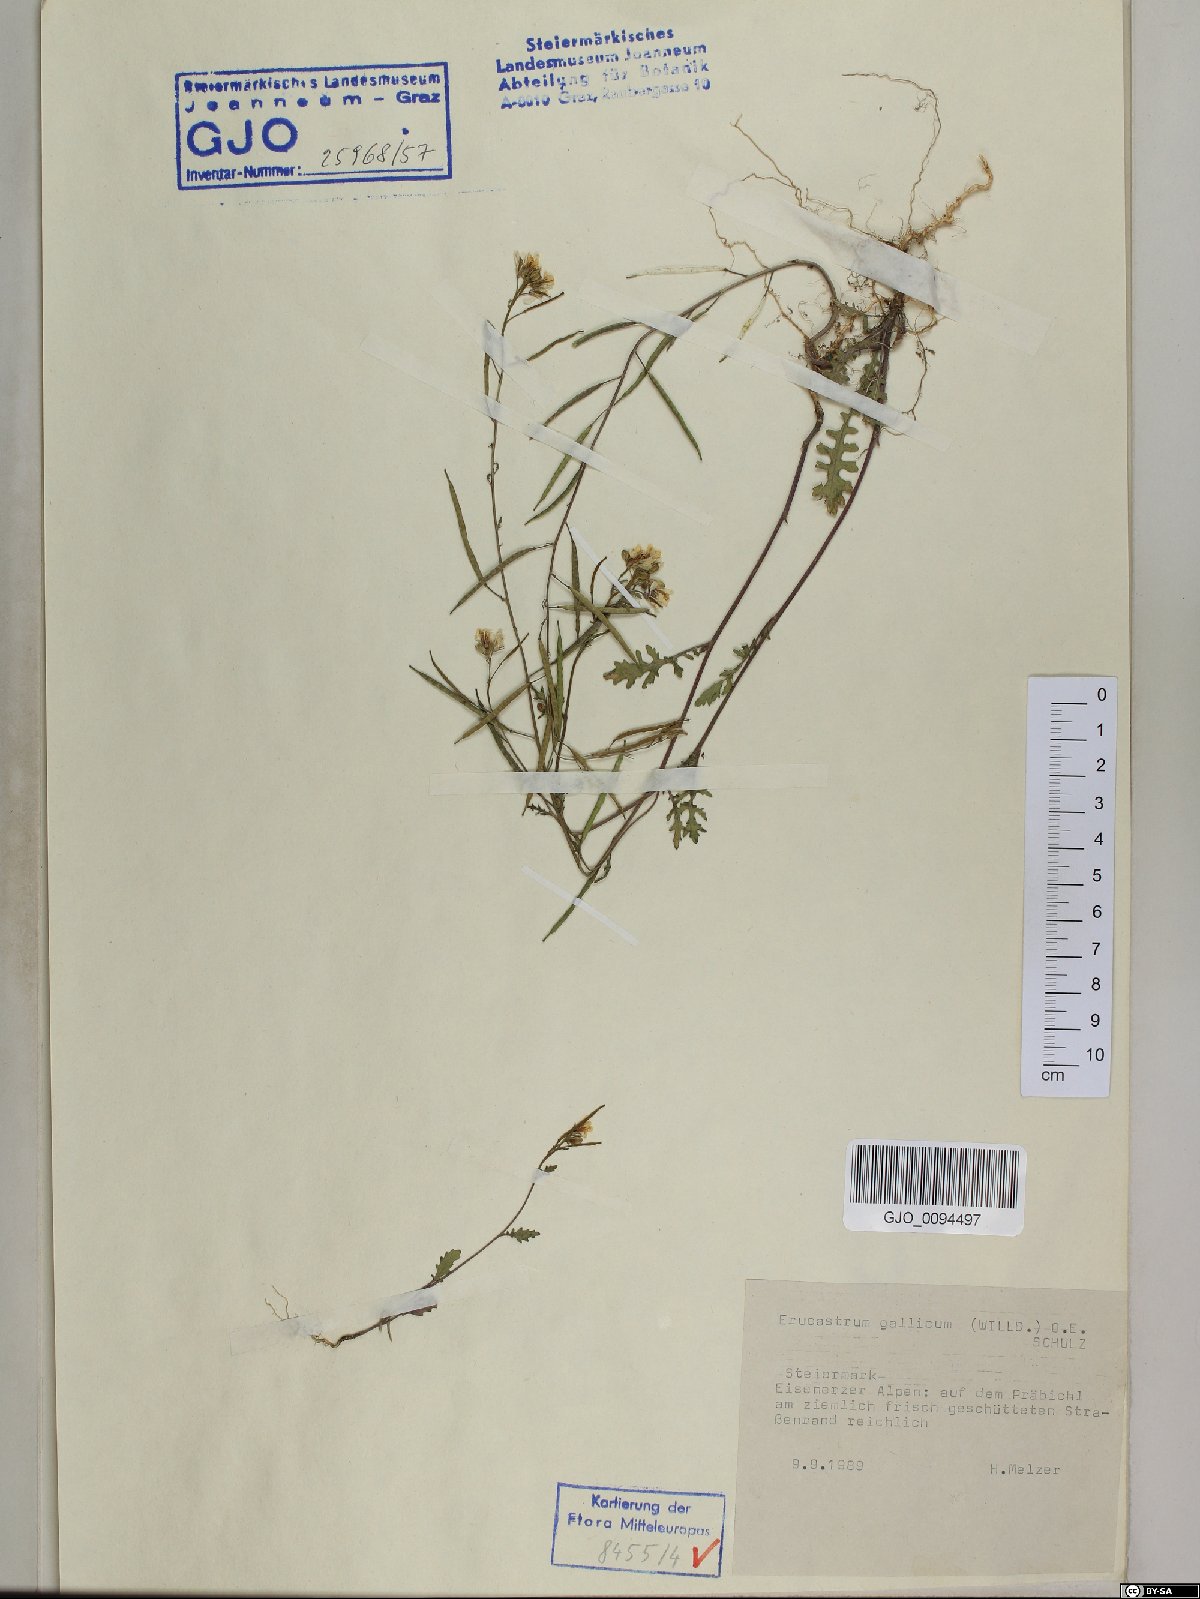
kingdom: Plantae
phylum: Tracheophyta
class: Magnoliopsida
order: Brassicales
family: Brassicaceae
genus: Erucastrum
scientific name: Erucastrum gallicum
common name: Hairy rocket
